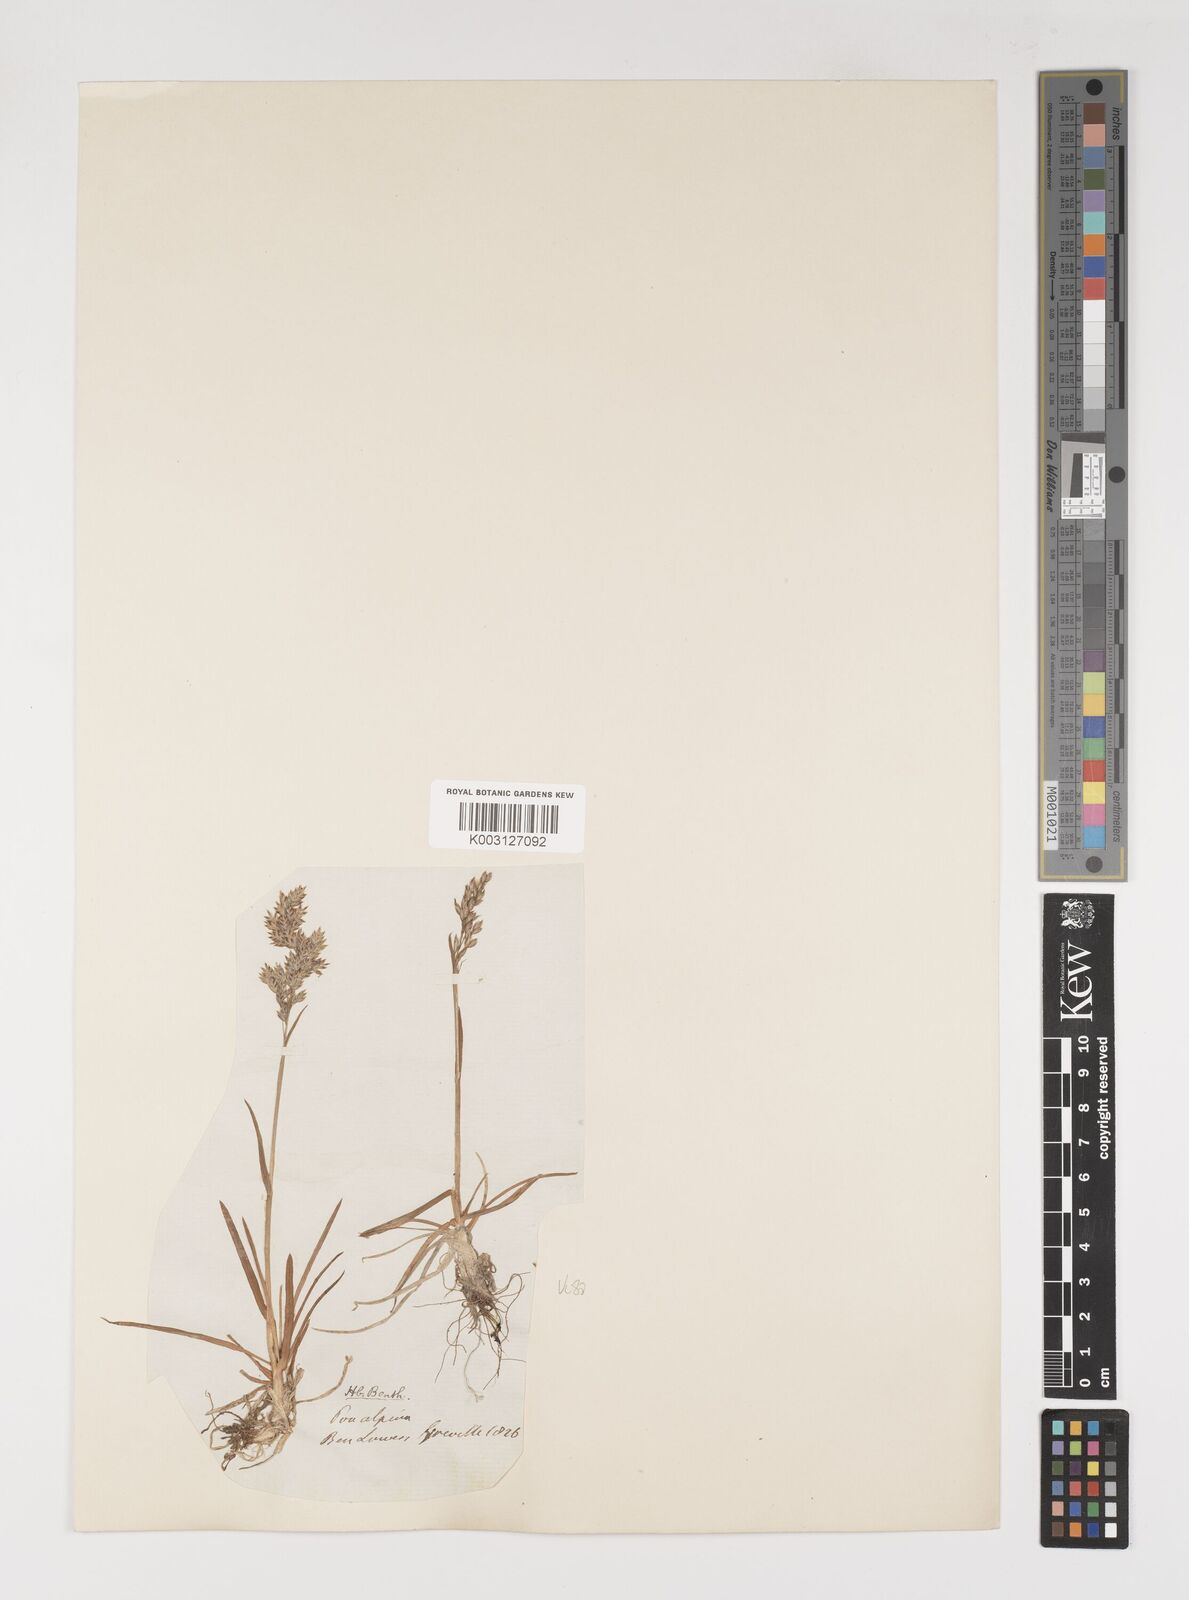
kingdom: Plantae
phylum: Tracheophyta
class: Liliopsida
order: Poales
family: Poaceae
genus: Poa
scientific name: Poa alpina
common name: Alpine bluegrass
